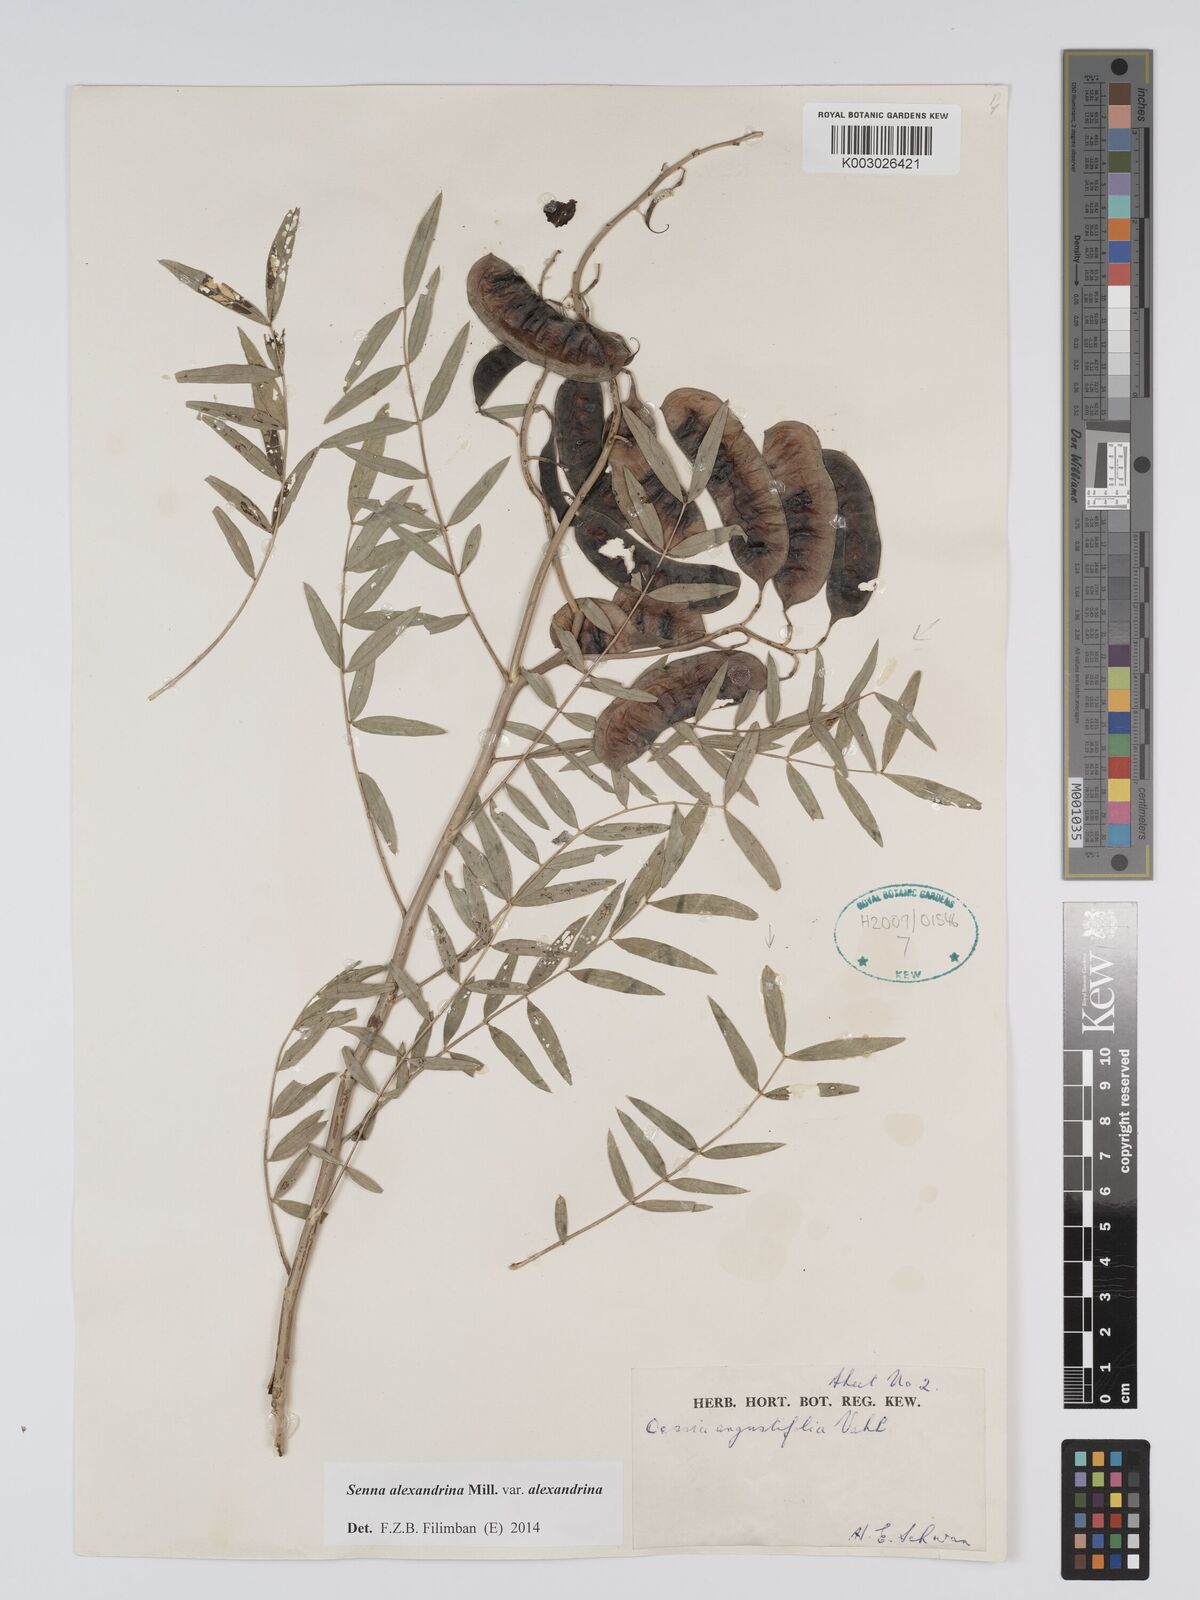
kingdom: Plantae
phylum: Tracheophyta
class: Magnoliopsida
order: Fabales
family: Fabaceae
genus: Senna
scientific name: Senna alexandrina
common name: True senna
